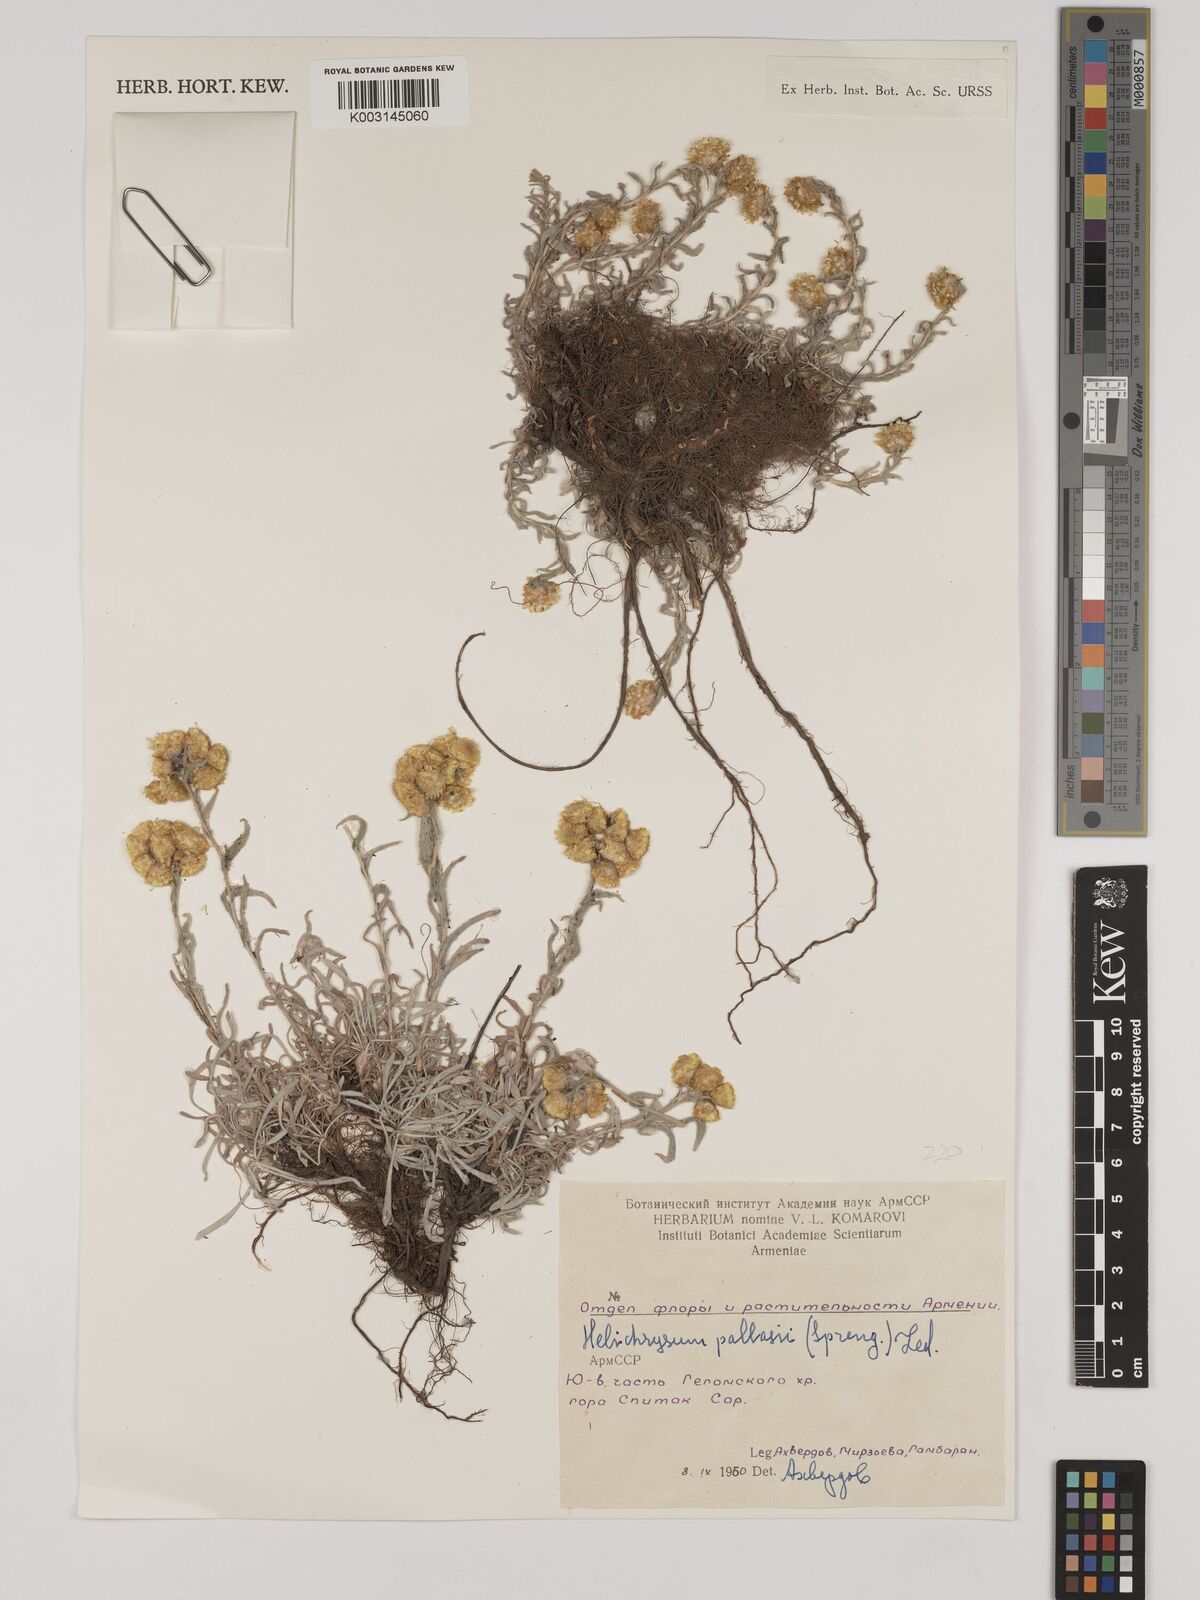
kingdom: Plantae
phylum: Tracheophyta
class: Magnoliopsida
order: Asterales
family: Asteraceae
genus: Helichrysum
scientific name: Helichrysum
